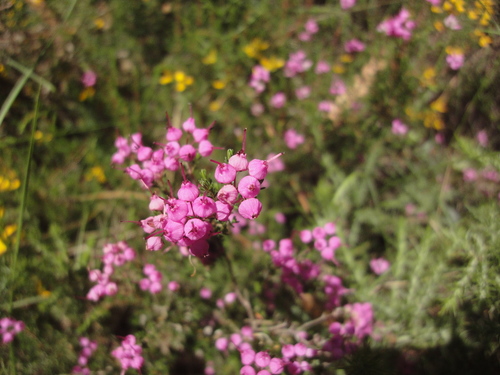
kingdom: Plantae
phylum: Tracheophyta
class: Magnoliopsida
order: Ericales
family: Ericaceae
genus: Erica
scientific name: Erica umbellata
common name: Dwarf spanish heath
